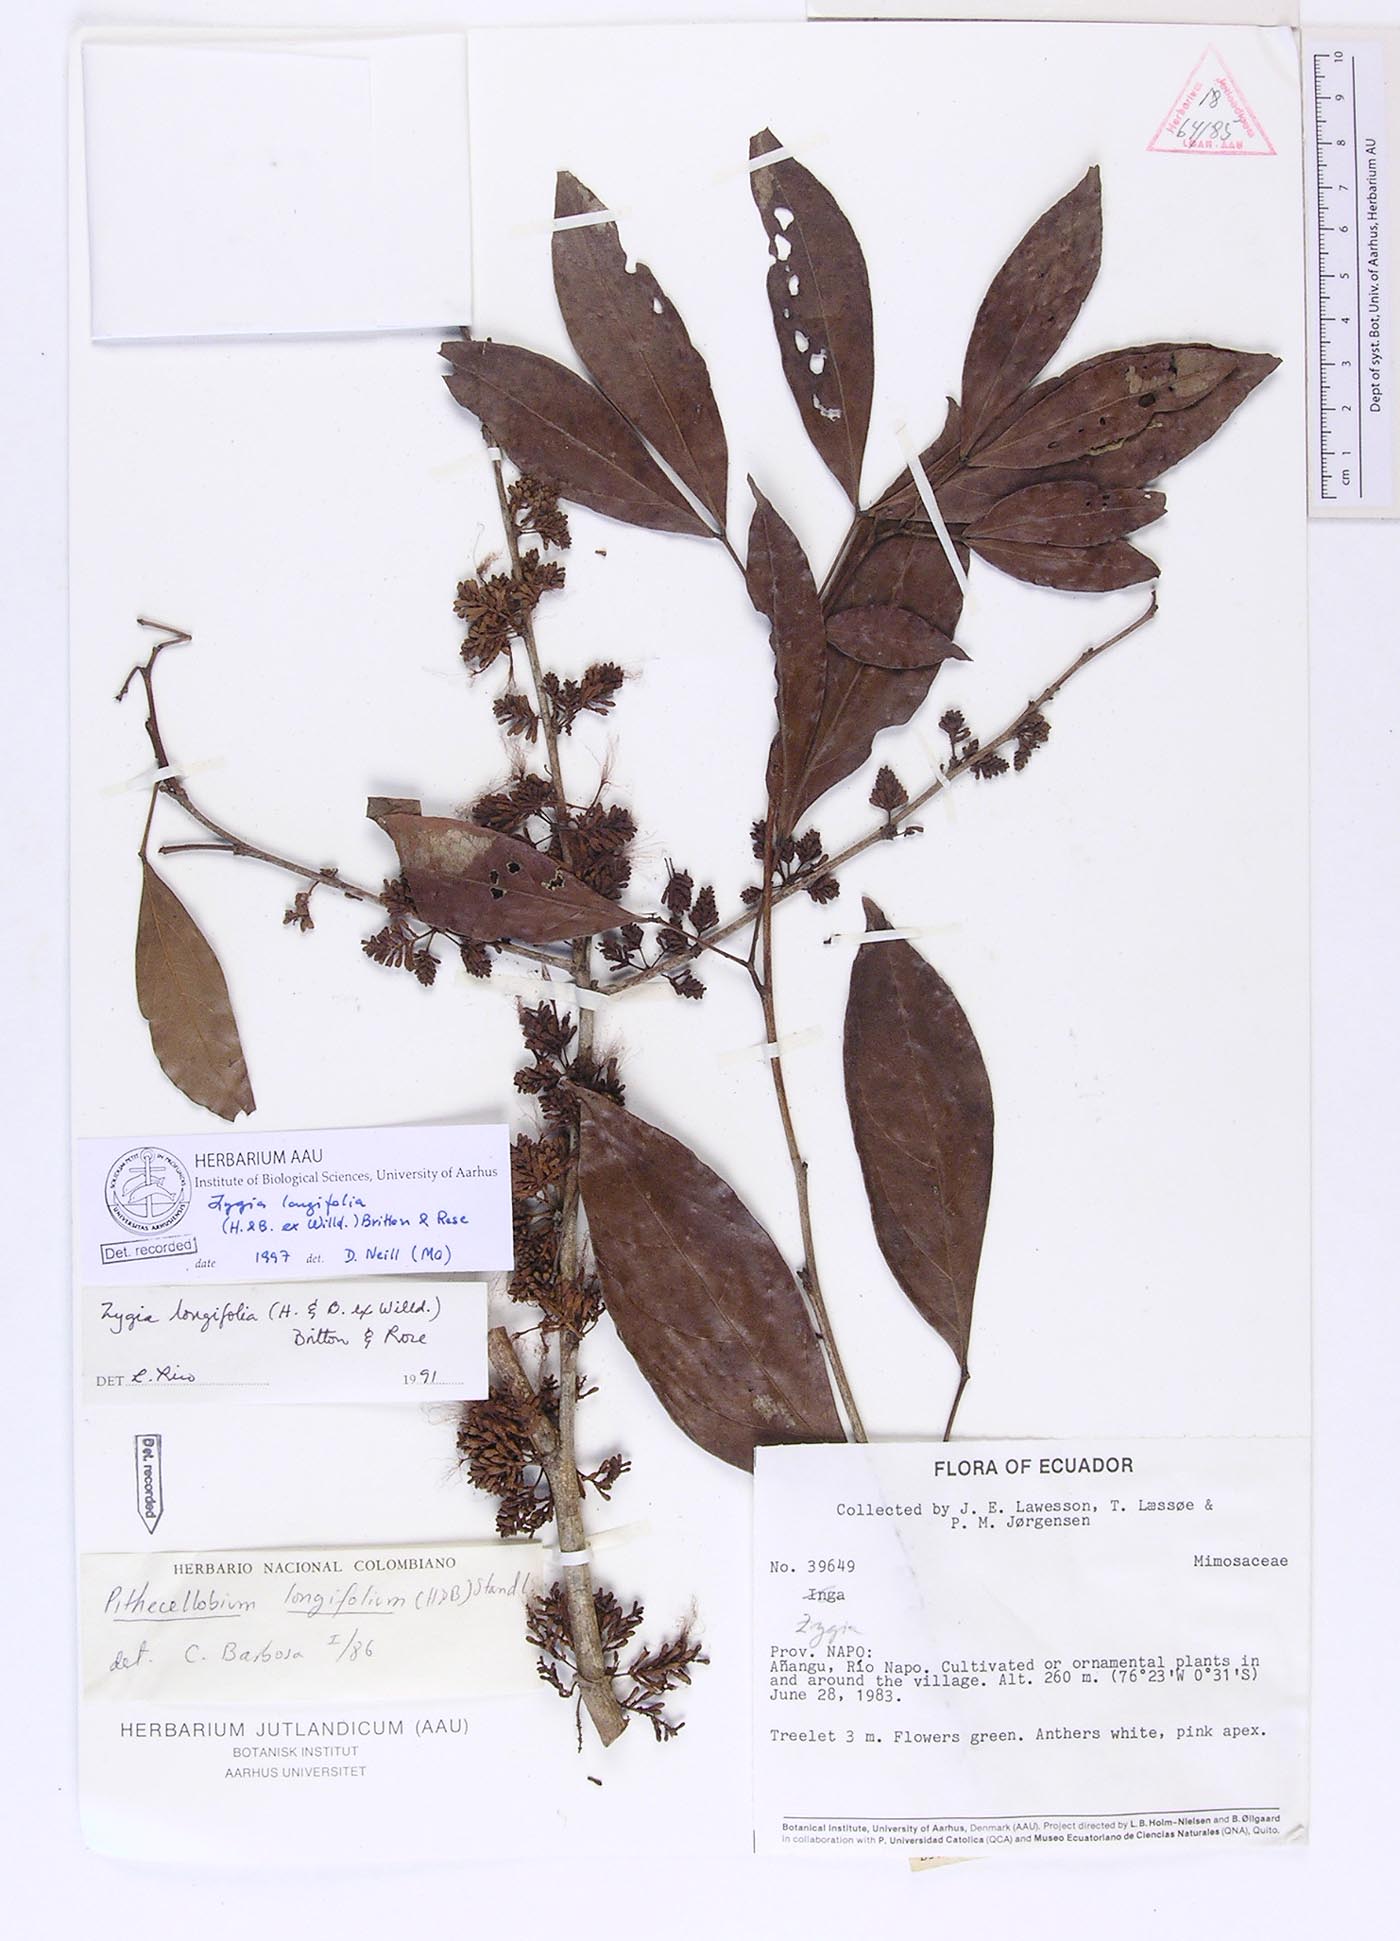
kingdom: Plantae
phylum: Tracheophyta
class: Magnoliopsida
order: Fabales
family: Fabaceae
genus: Zygia
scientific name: Zygia longifolia
